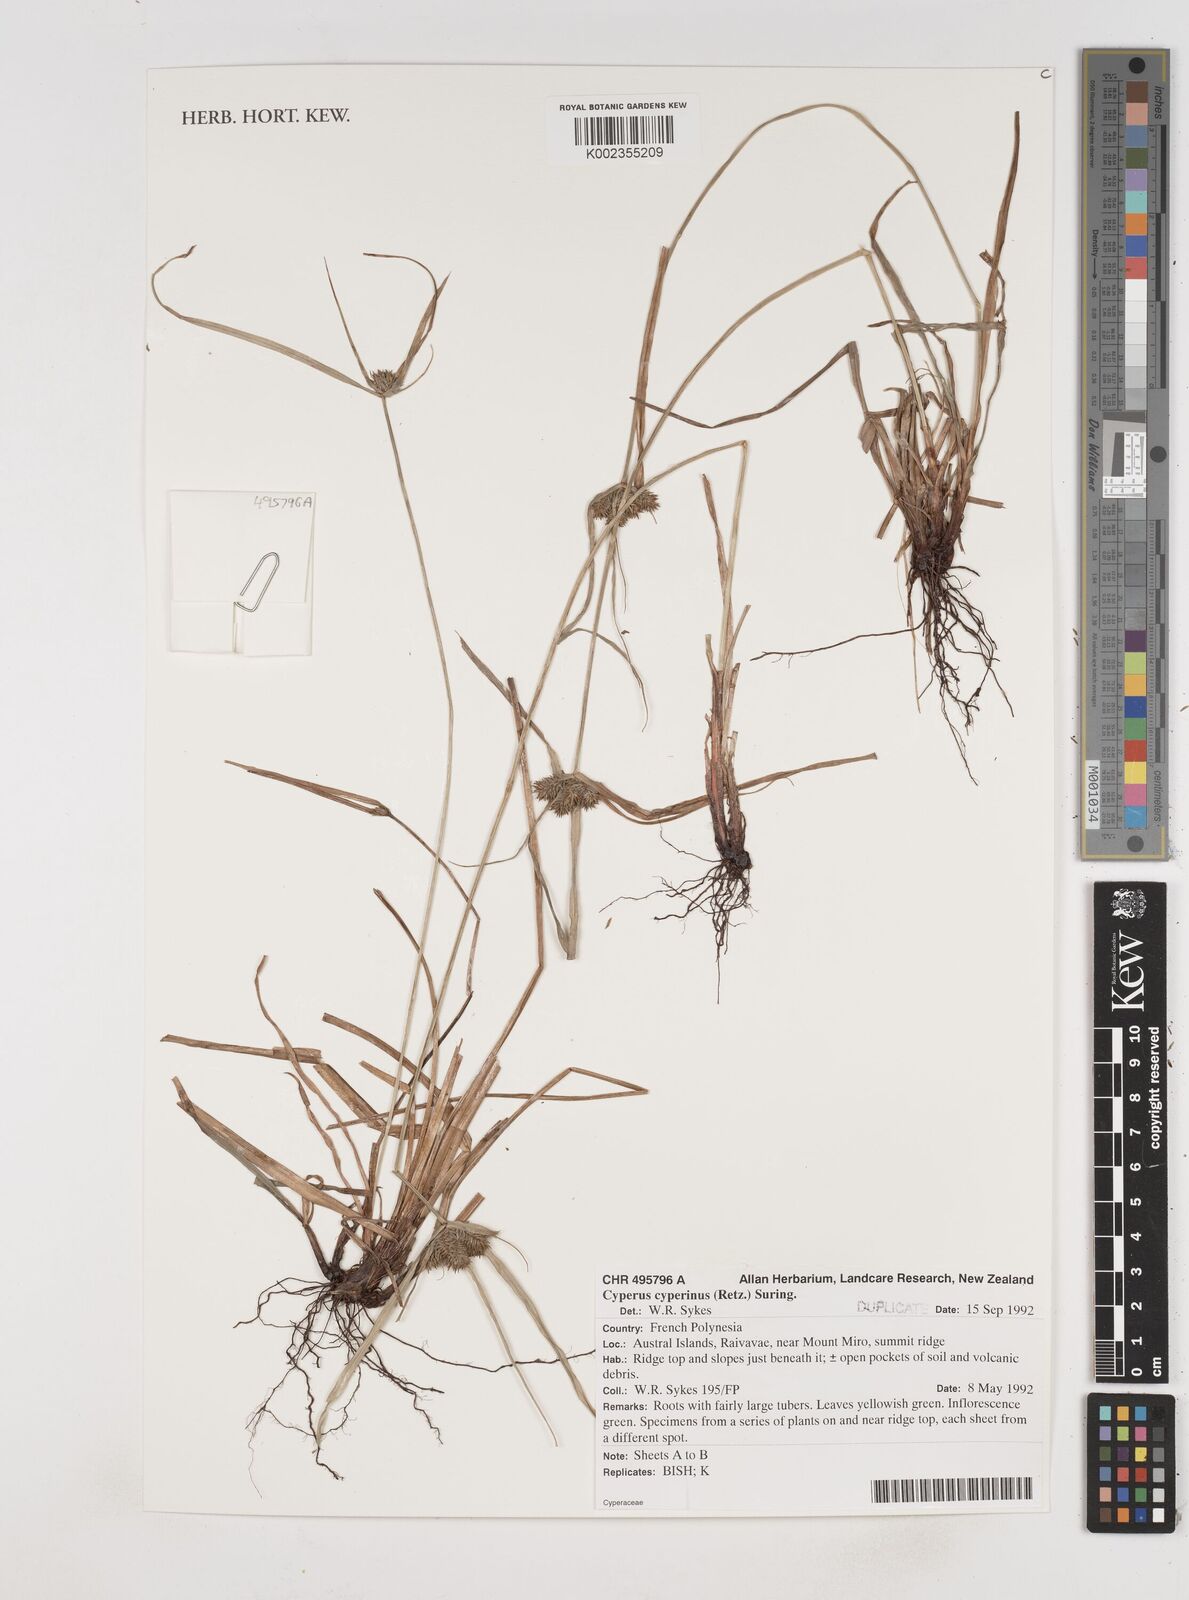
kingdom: Plantae
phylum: Tracheophyta
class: Liliopsida
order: Poales
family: Cyperaceae
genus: Cyperus
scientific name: Cyperus cyperinus
